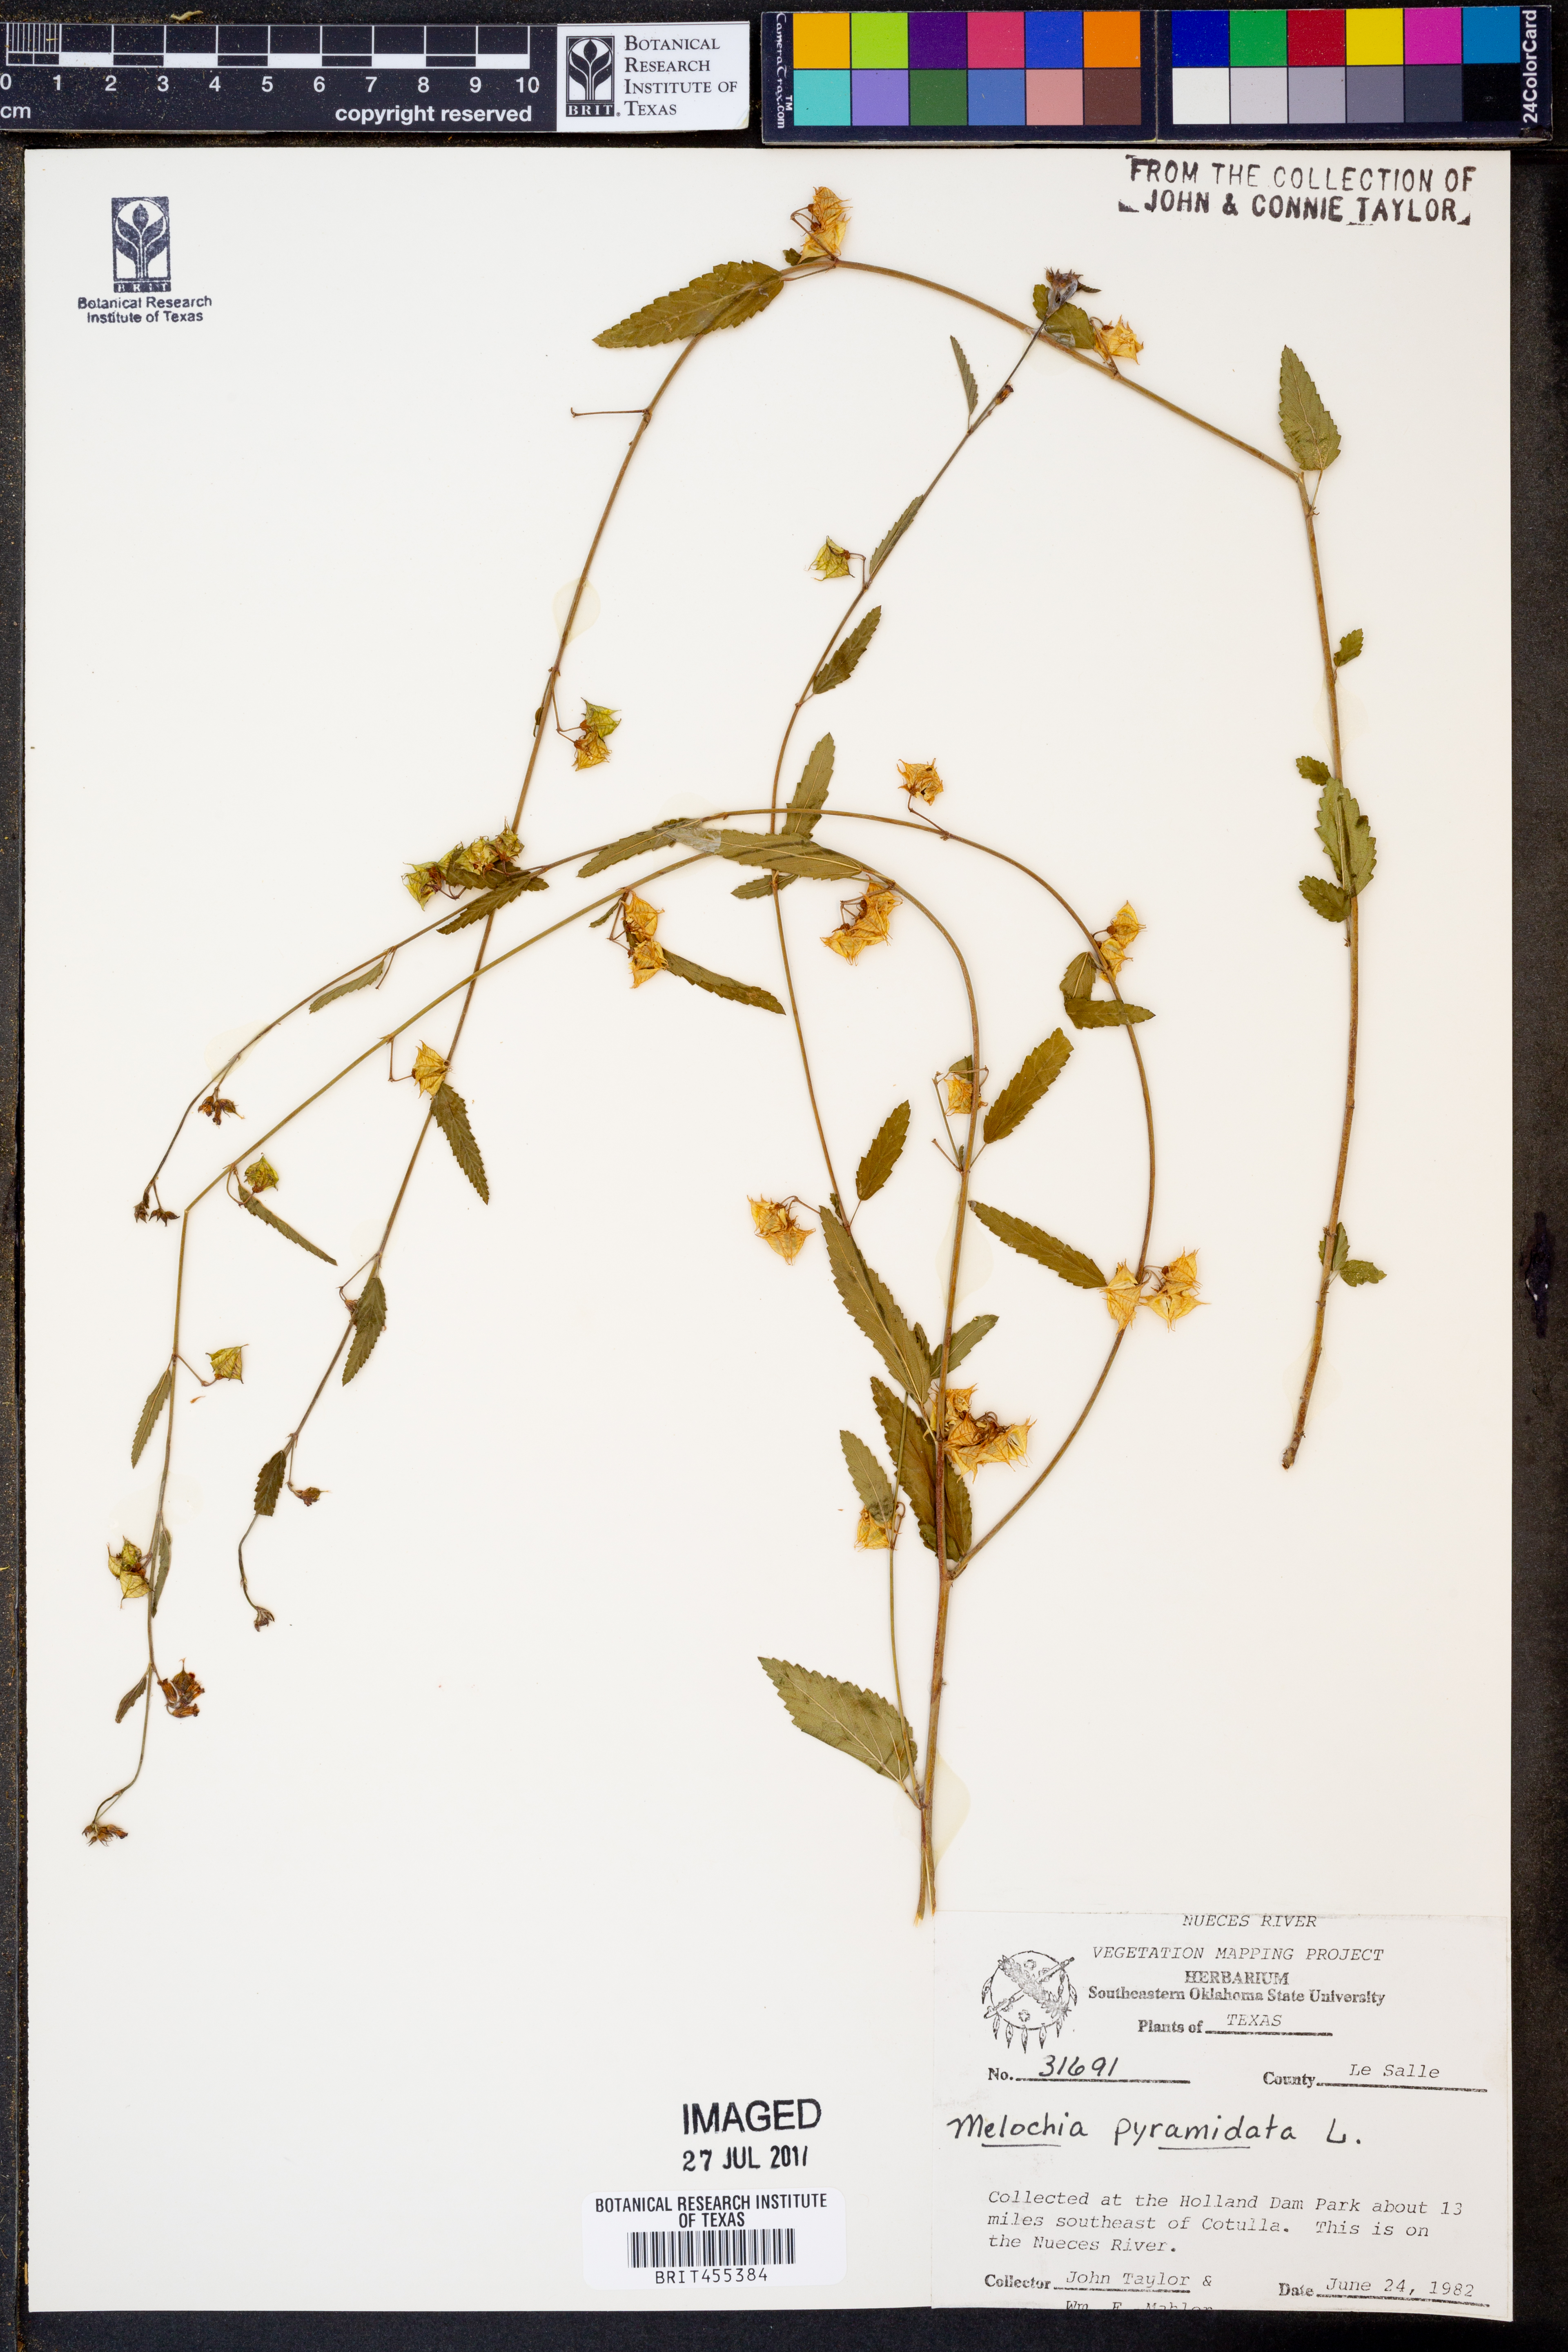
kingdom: Plantae
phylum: Tracheophyta
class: Magnoliopsida
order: Malvales
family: Malvaceae
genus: Melochia
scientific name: Melochia pyramidata
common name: Pyramidflower
